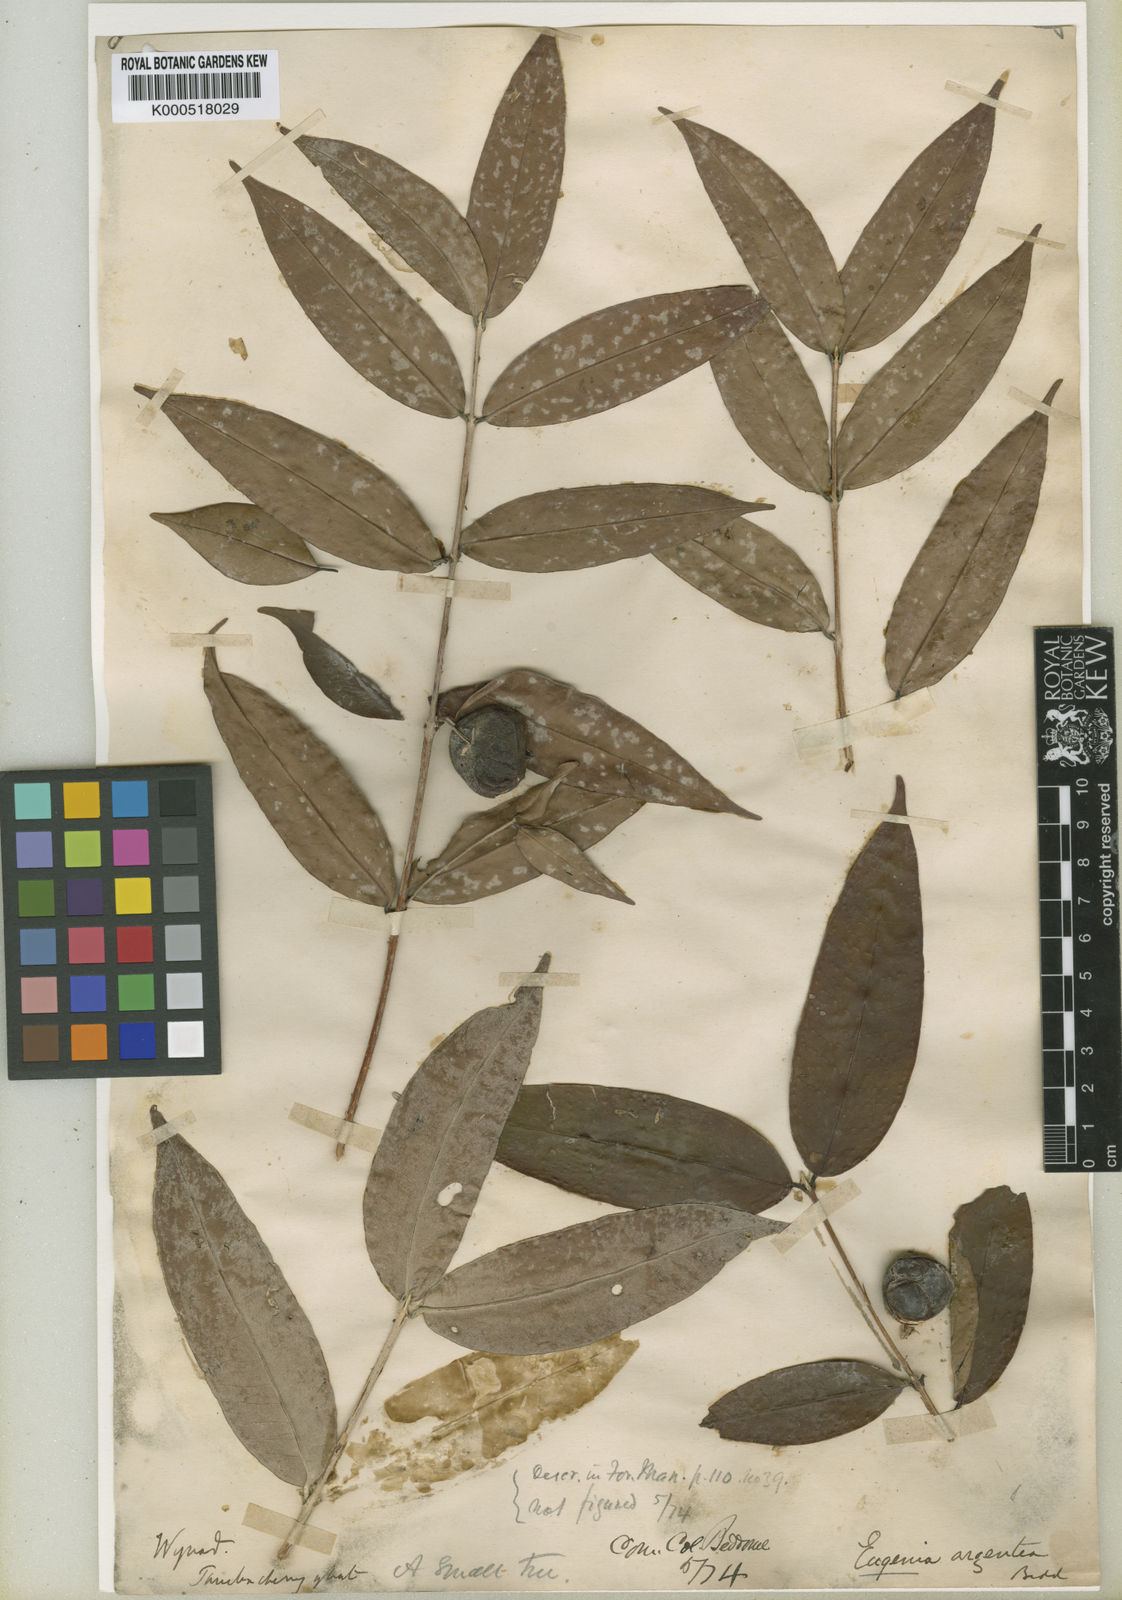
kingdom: Plantae
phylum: Tracheophyta
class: Magnoliopsida
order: Myrtales
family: Myrtaceae
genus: Eugenia
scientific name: Eugenia argentea
